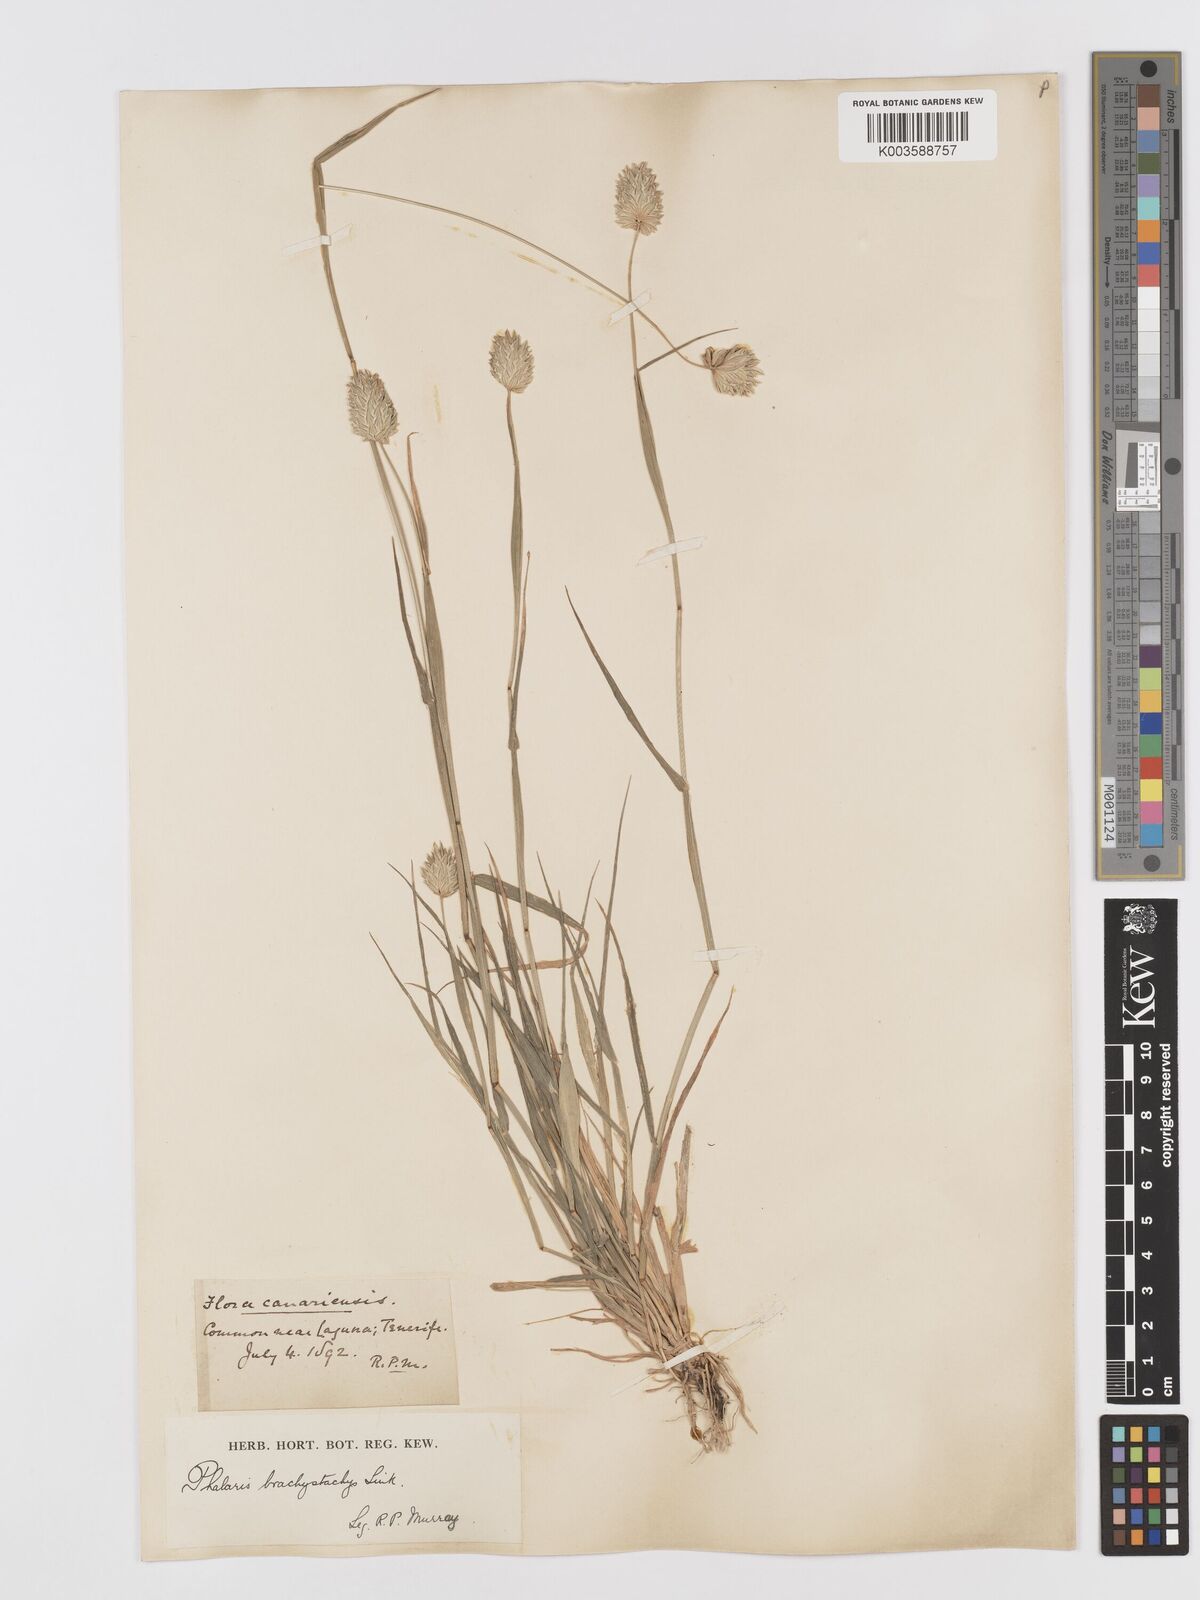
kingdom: Plantae
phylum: Tracheophyta
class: Liliopsida
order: Poales
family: Poaceae
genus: Phalaris
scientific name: Phalaris brachystachys
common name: Confused canary-grass
